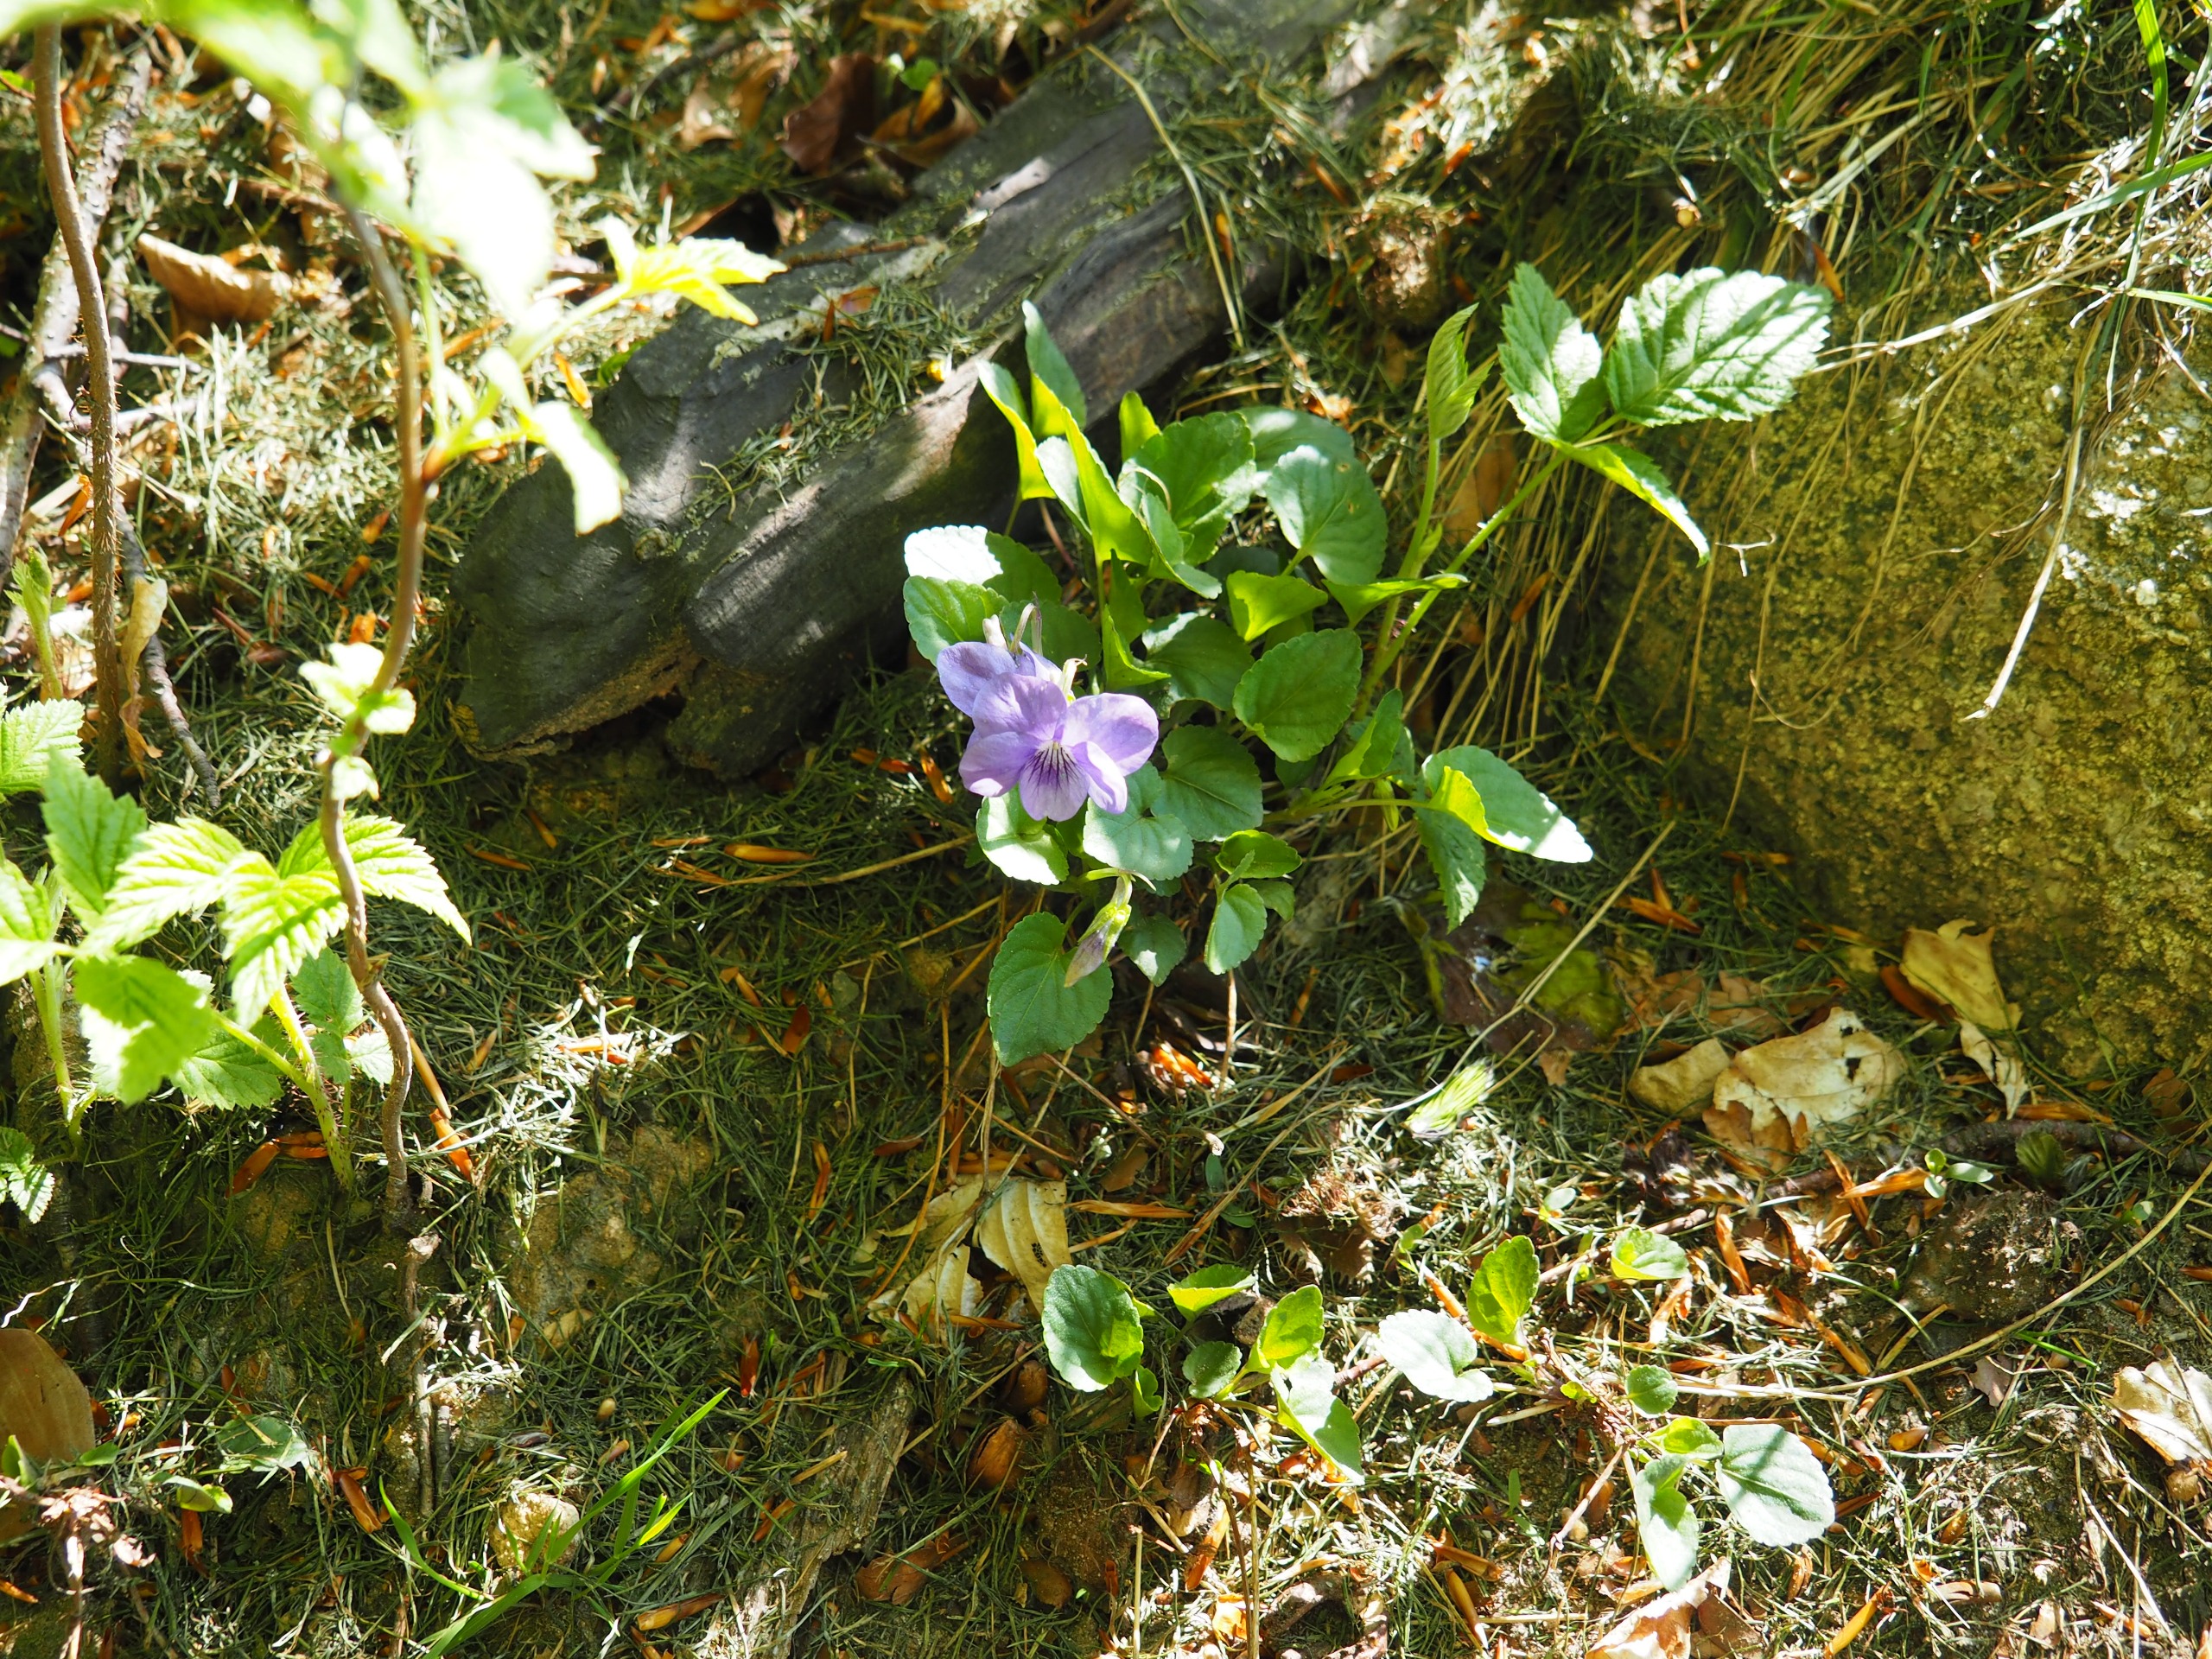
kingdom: Plantae
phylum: Tracheophyta
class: Magnoliopsida
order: Malpighiales
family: Violaceae
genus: Viola
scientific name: Viola riviniana
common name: Krat-viol
